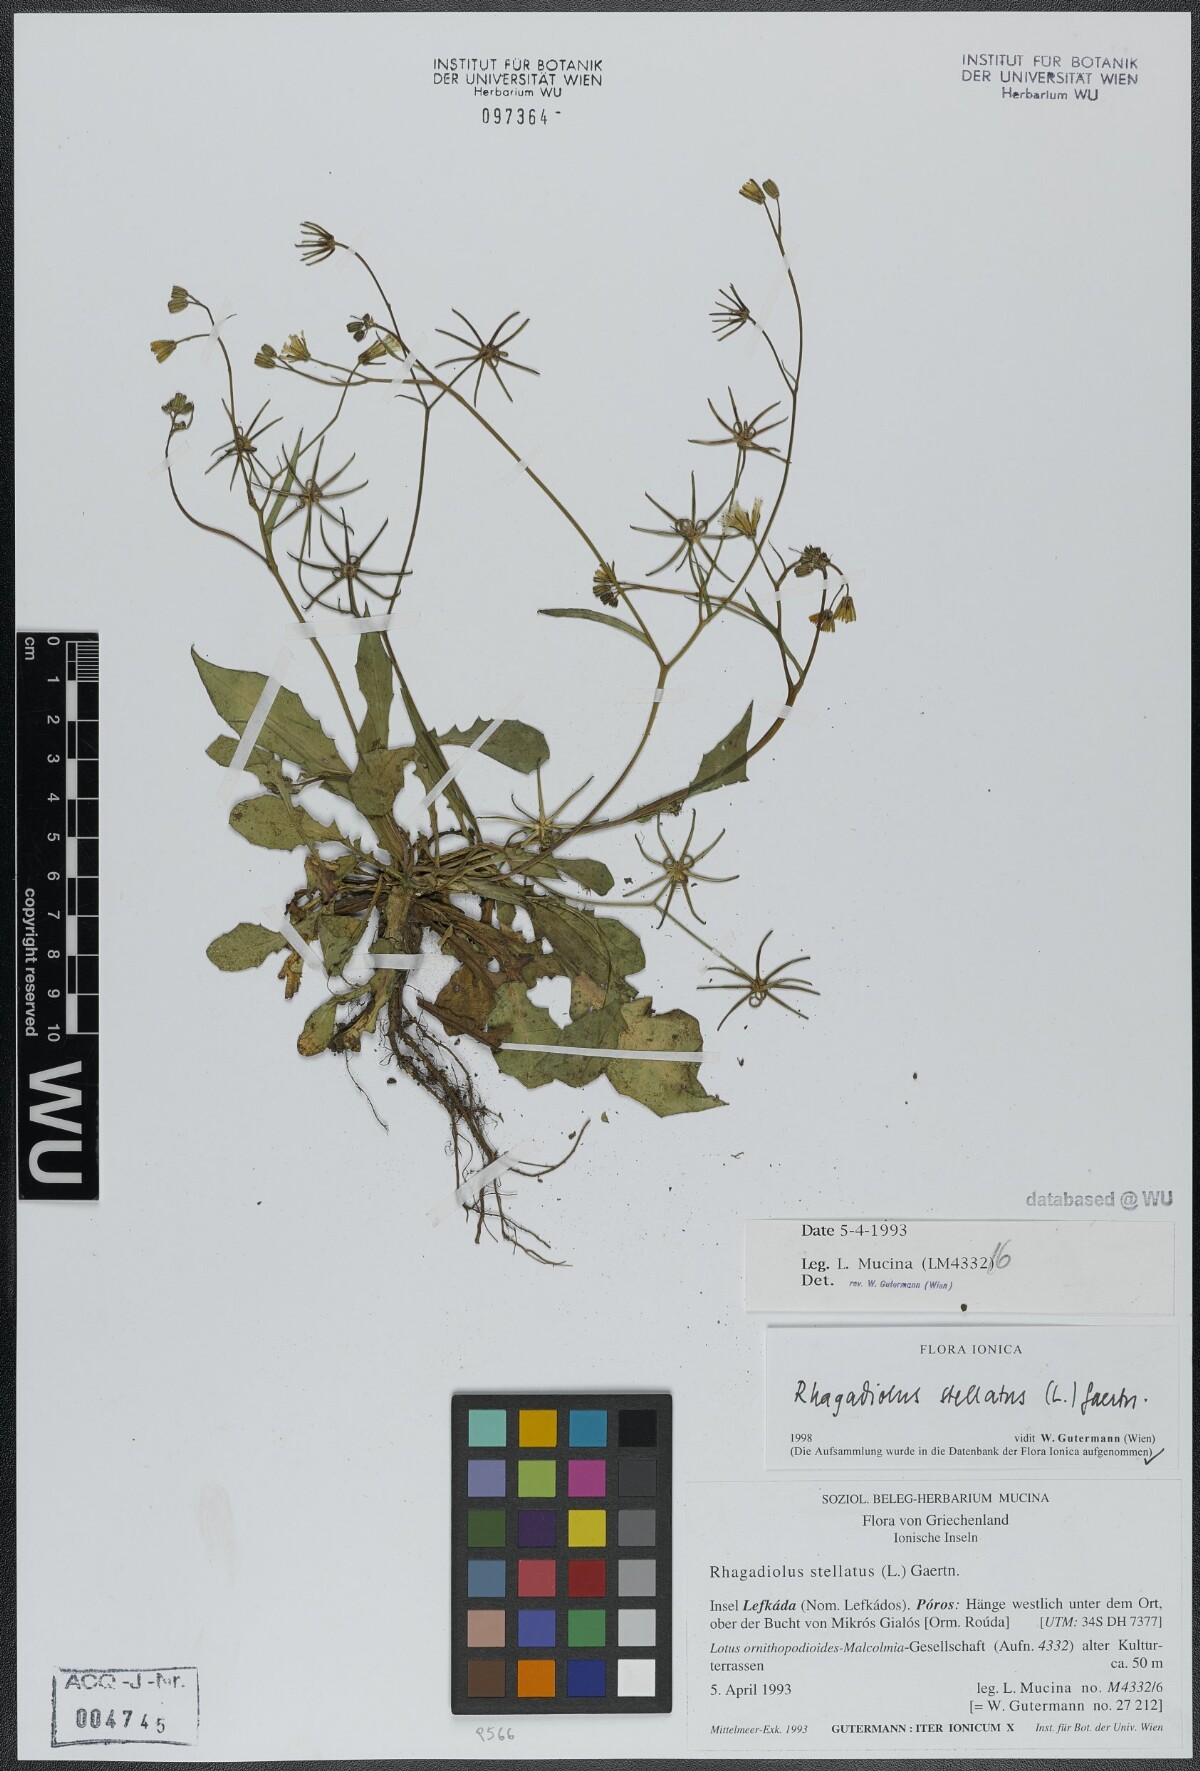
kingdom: Plantae
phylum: Tracheophyta
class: Magnoliopsida
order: Asterales
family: Asteraceae
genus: Rhagadiolus
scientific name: Rhagadiolus stellatus
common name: Star hawkbit
